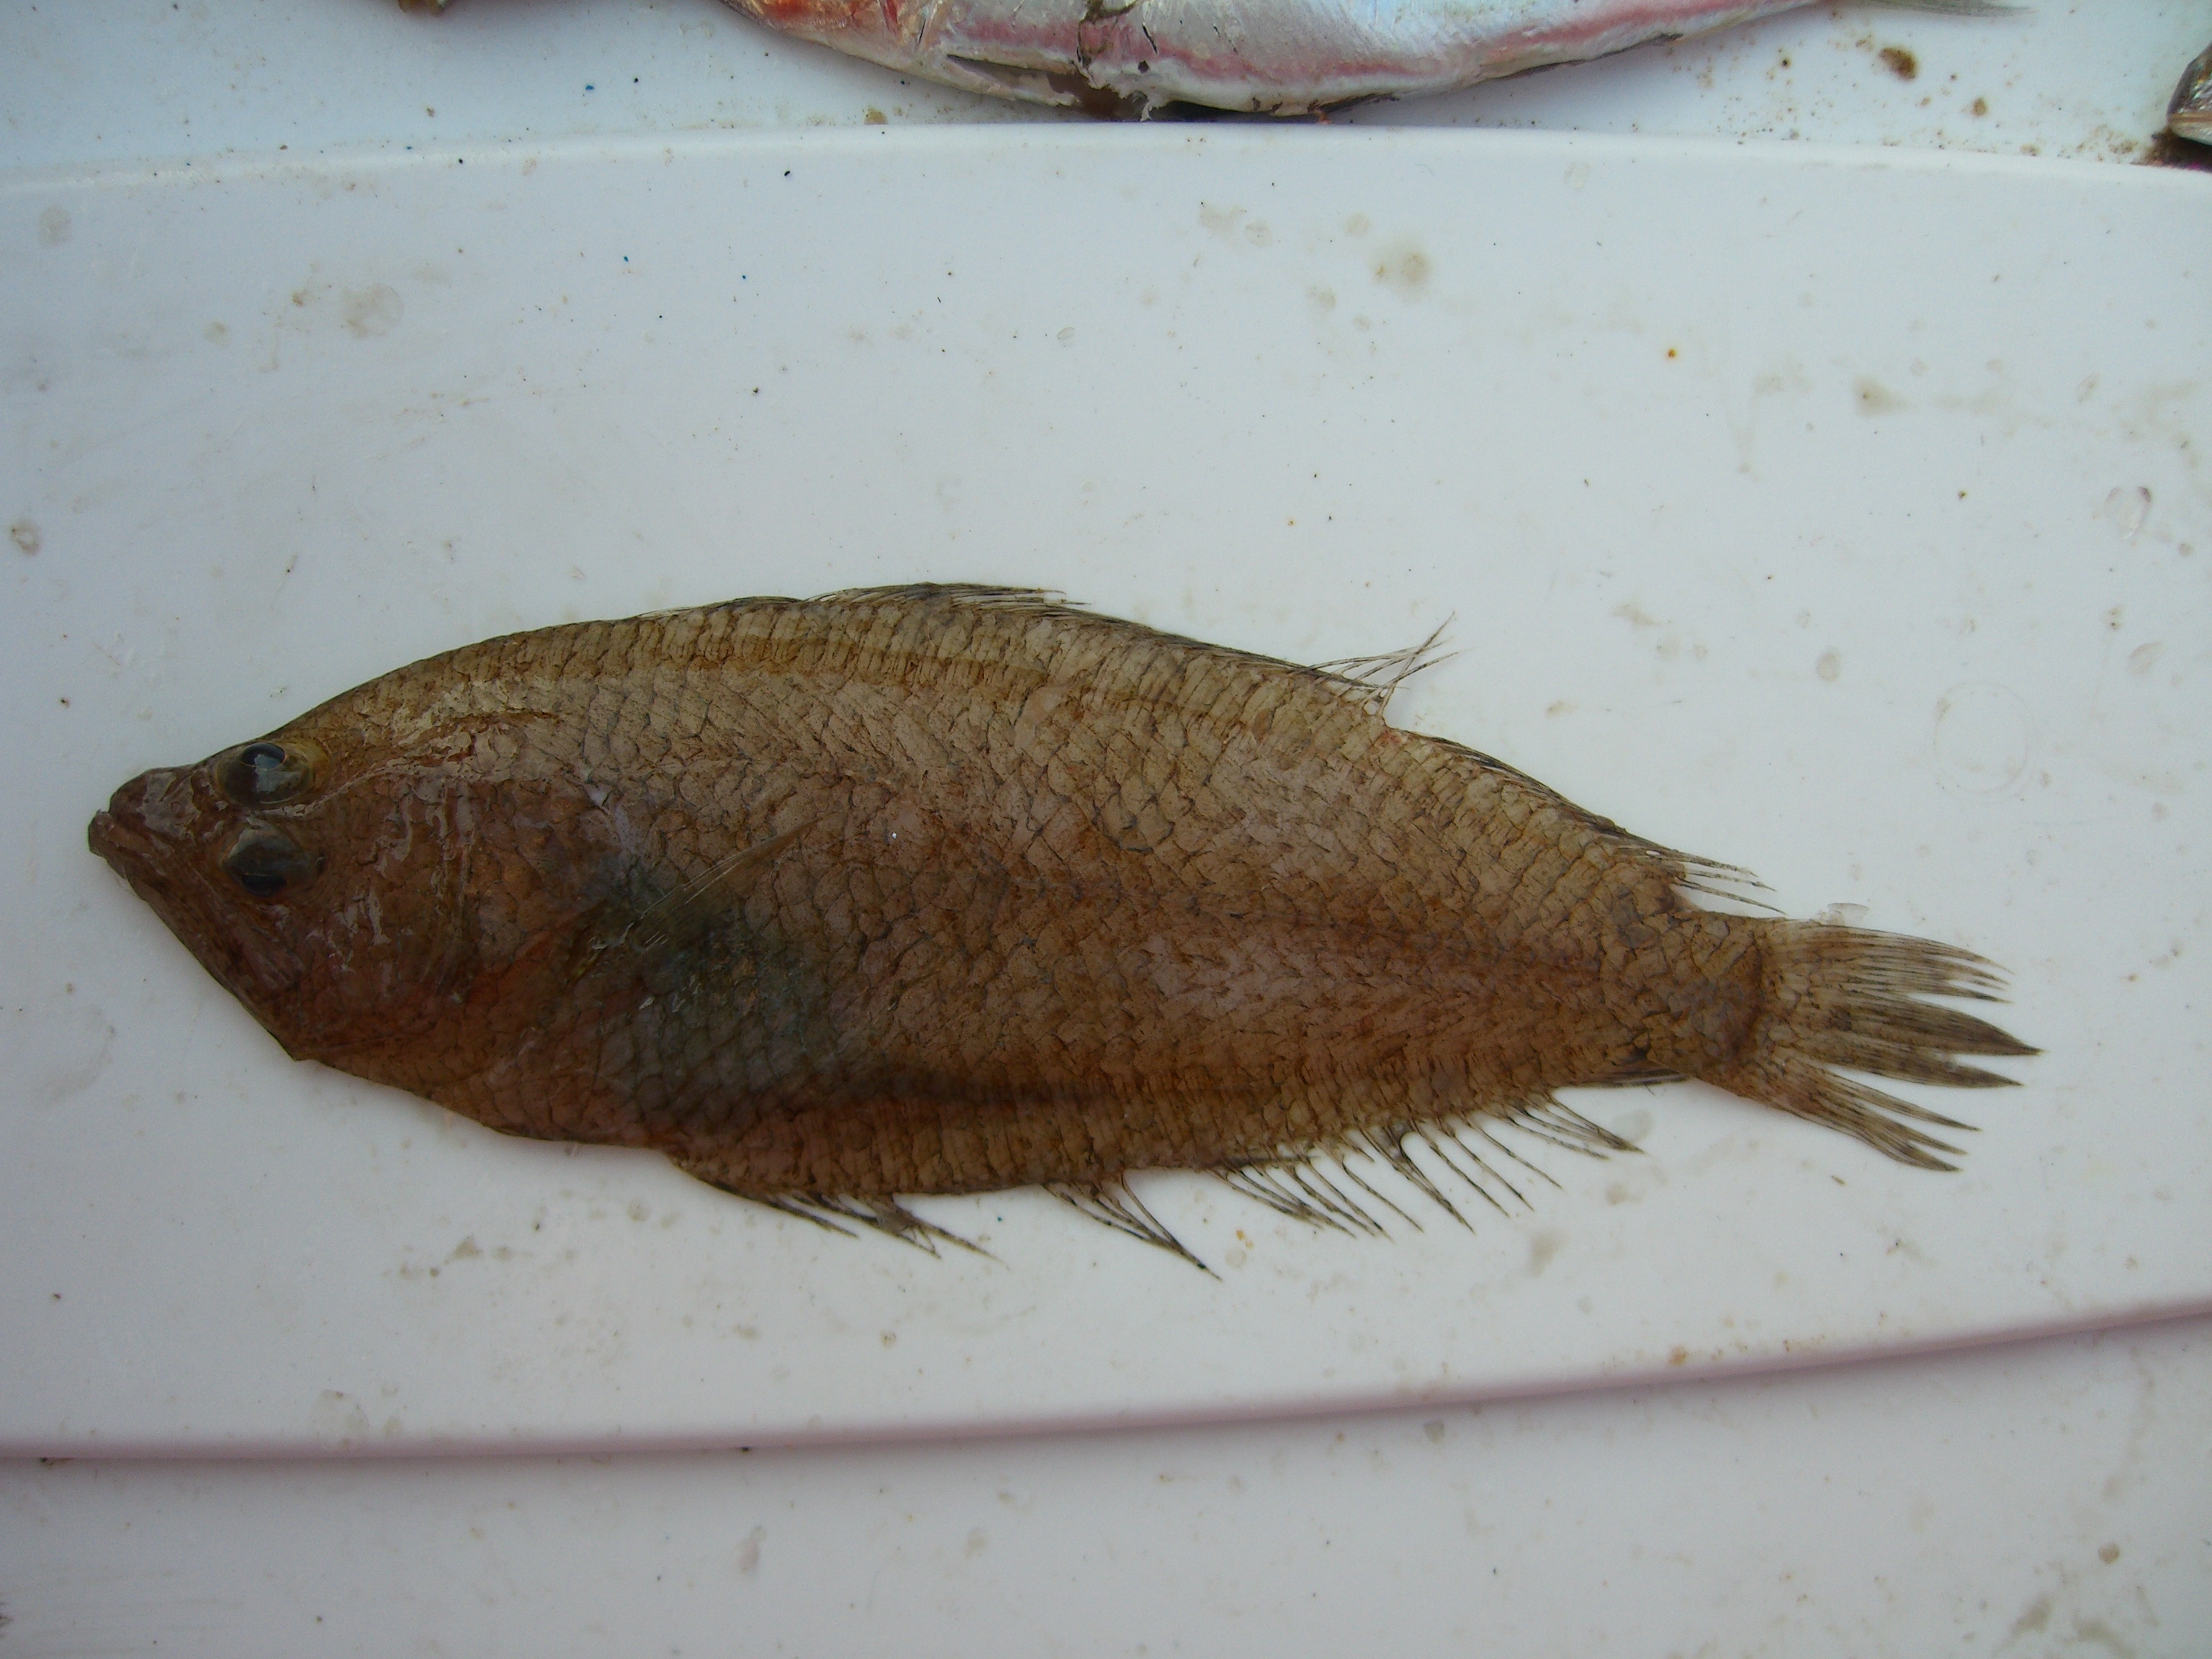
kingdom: Animalia
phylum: Chordata
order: Pleuronectiformes
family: Citharidae
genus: Citharus
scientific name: Citharus linguatula
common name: Atlantic spotted flounder
